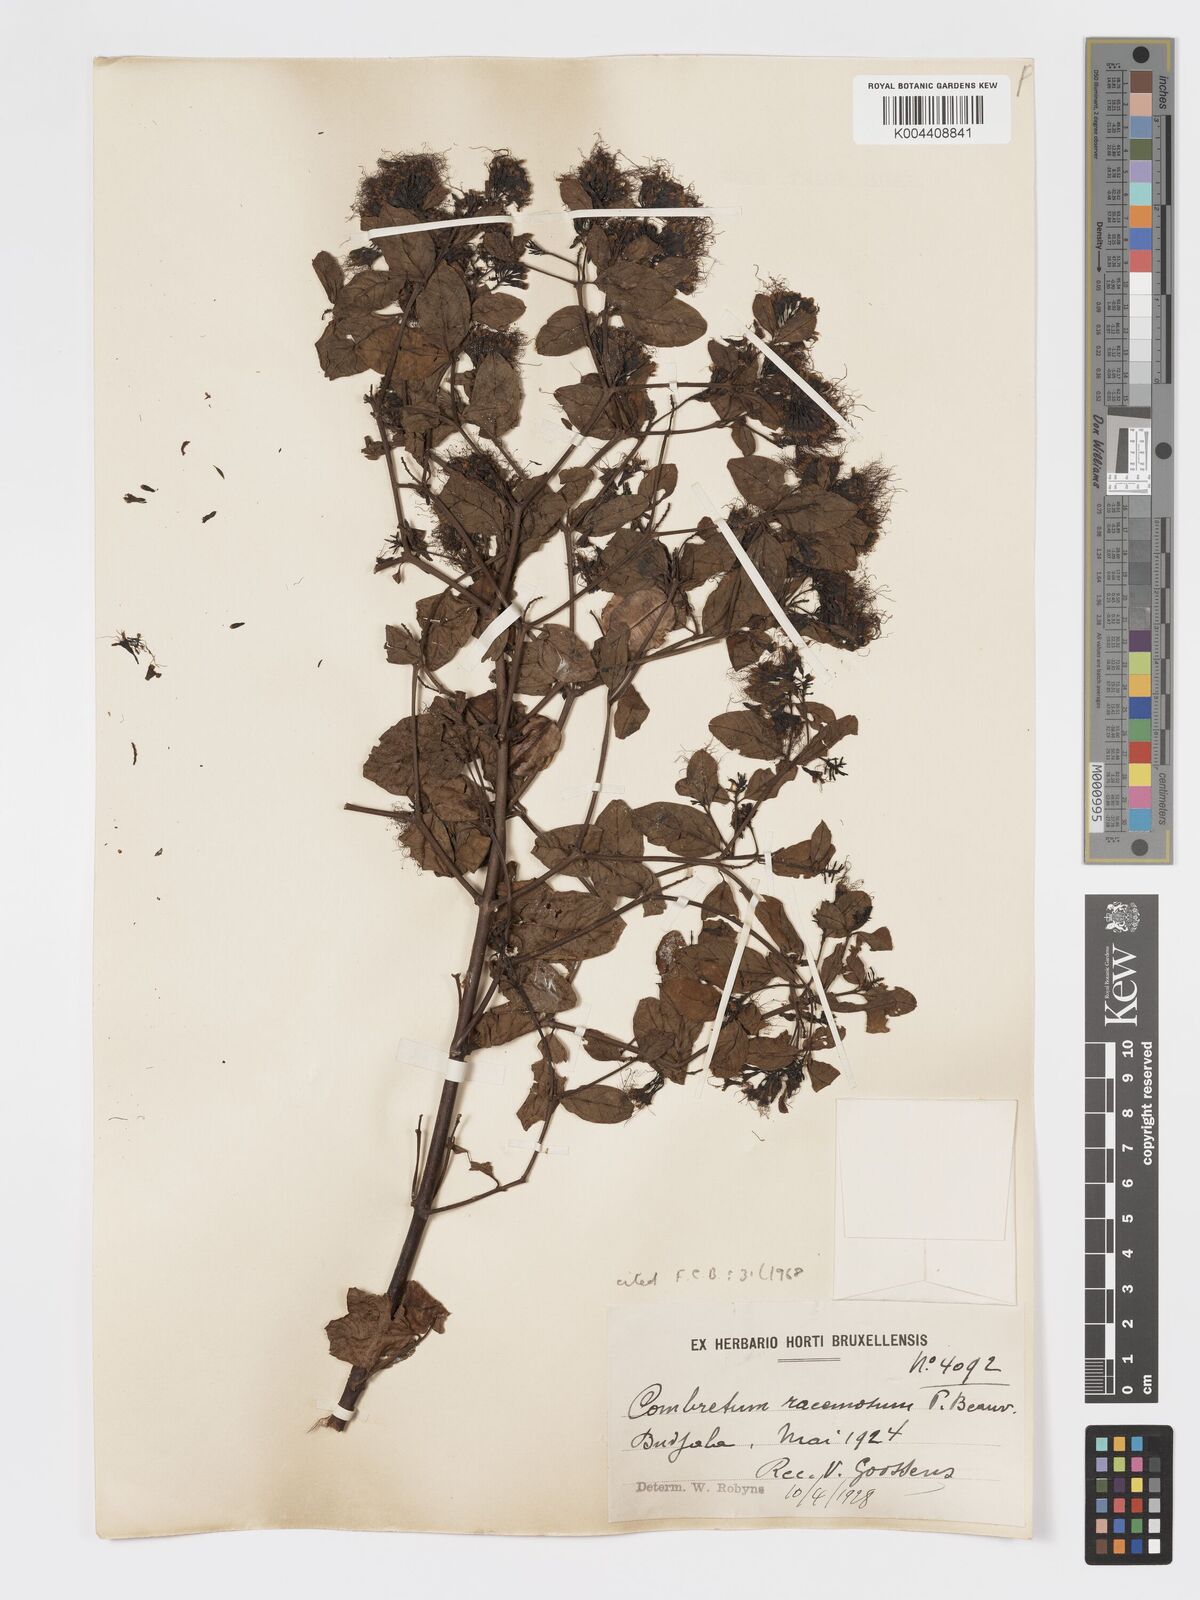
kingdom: Plantae
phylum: Tracheophyta
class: Magnoliopsida
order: Myrtales
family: Combretaceae
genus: Combretum
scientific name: Combretum racemosum
